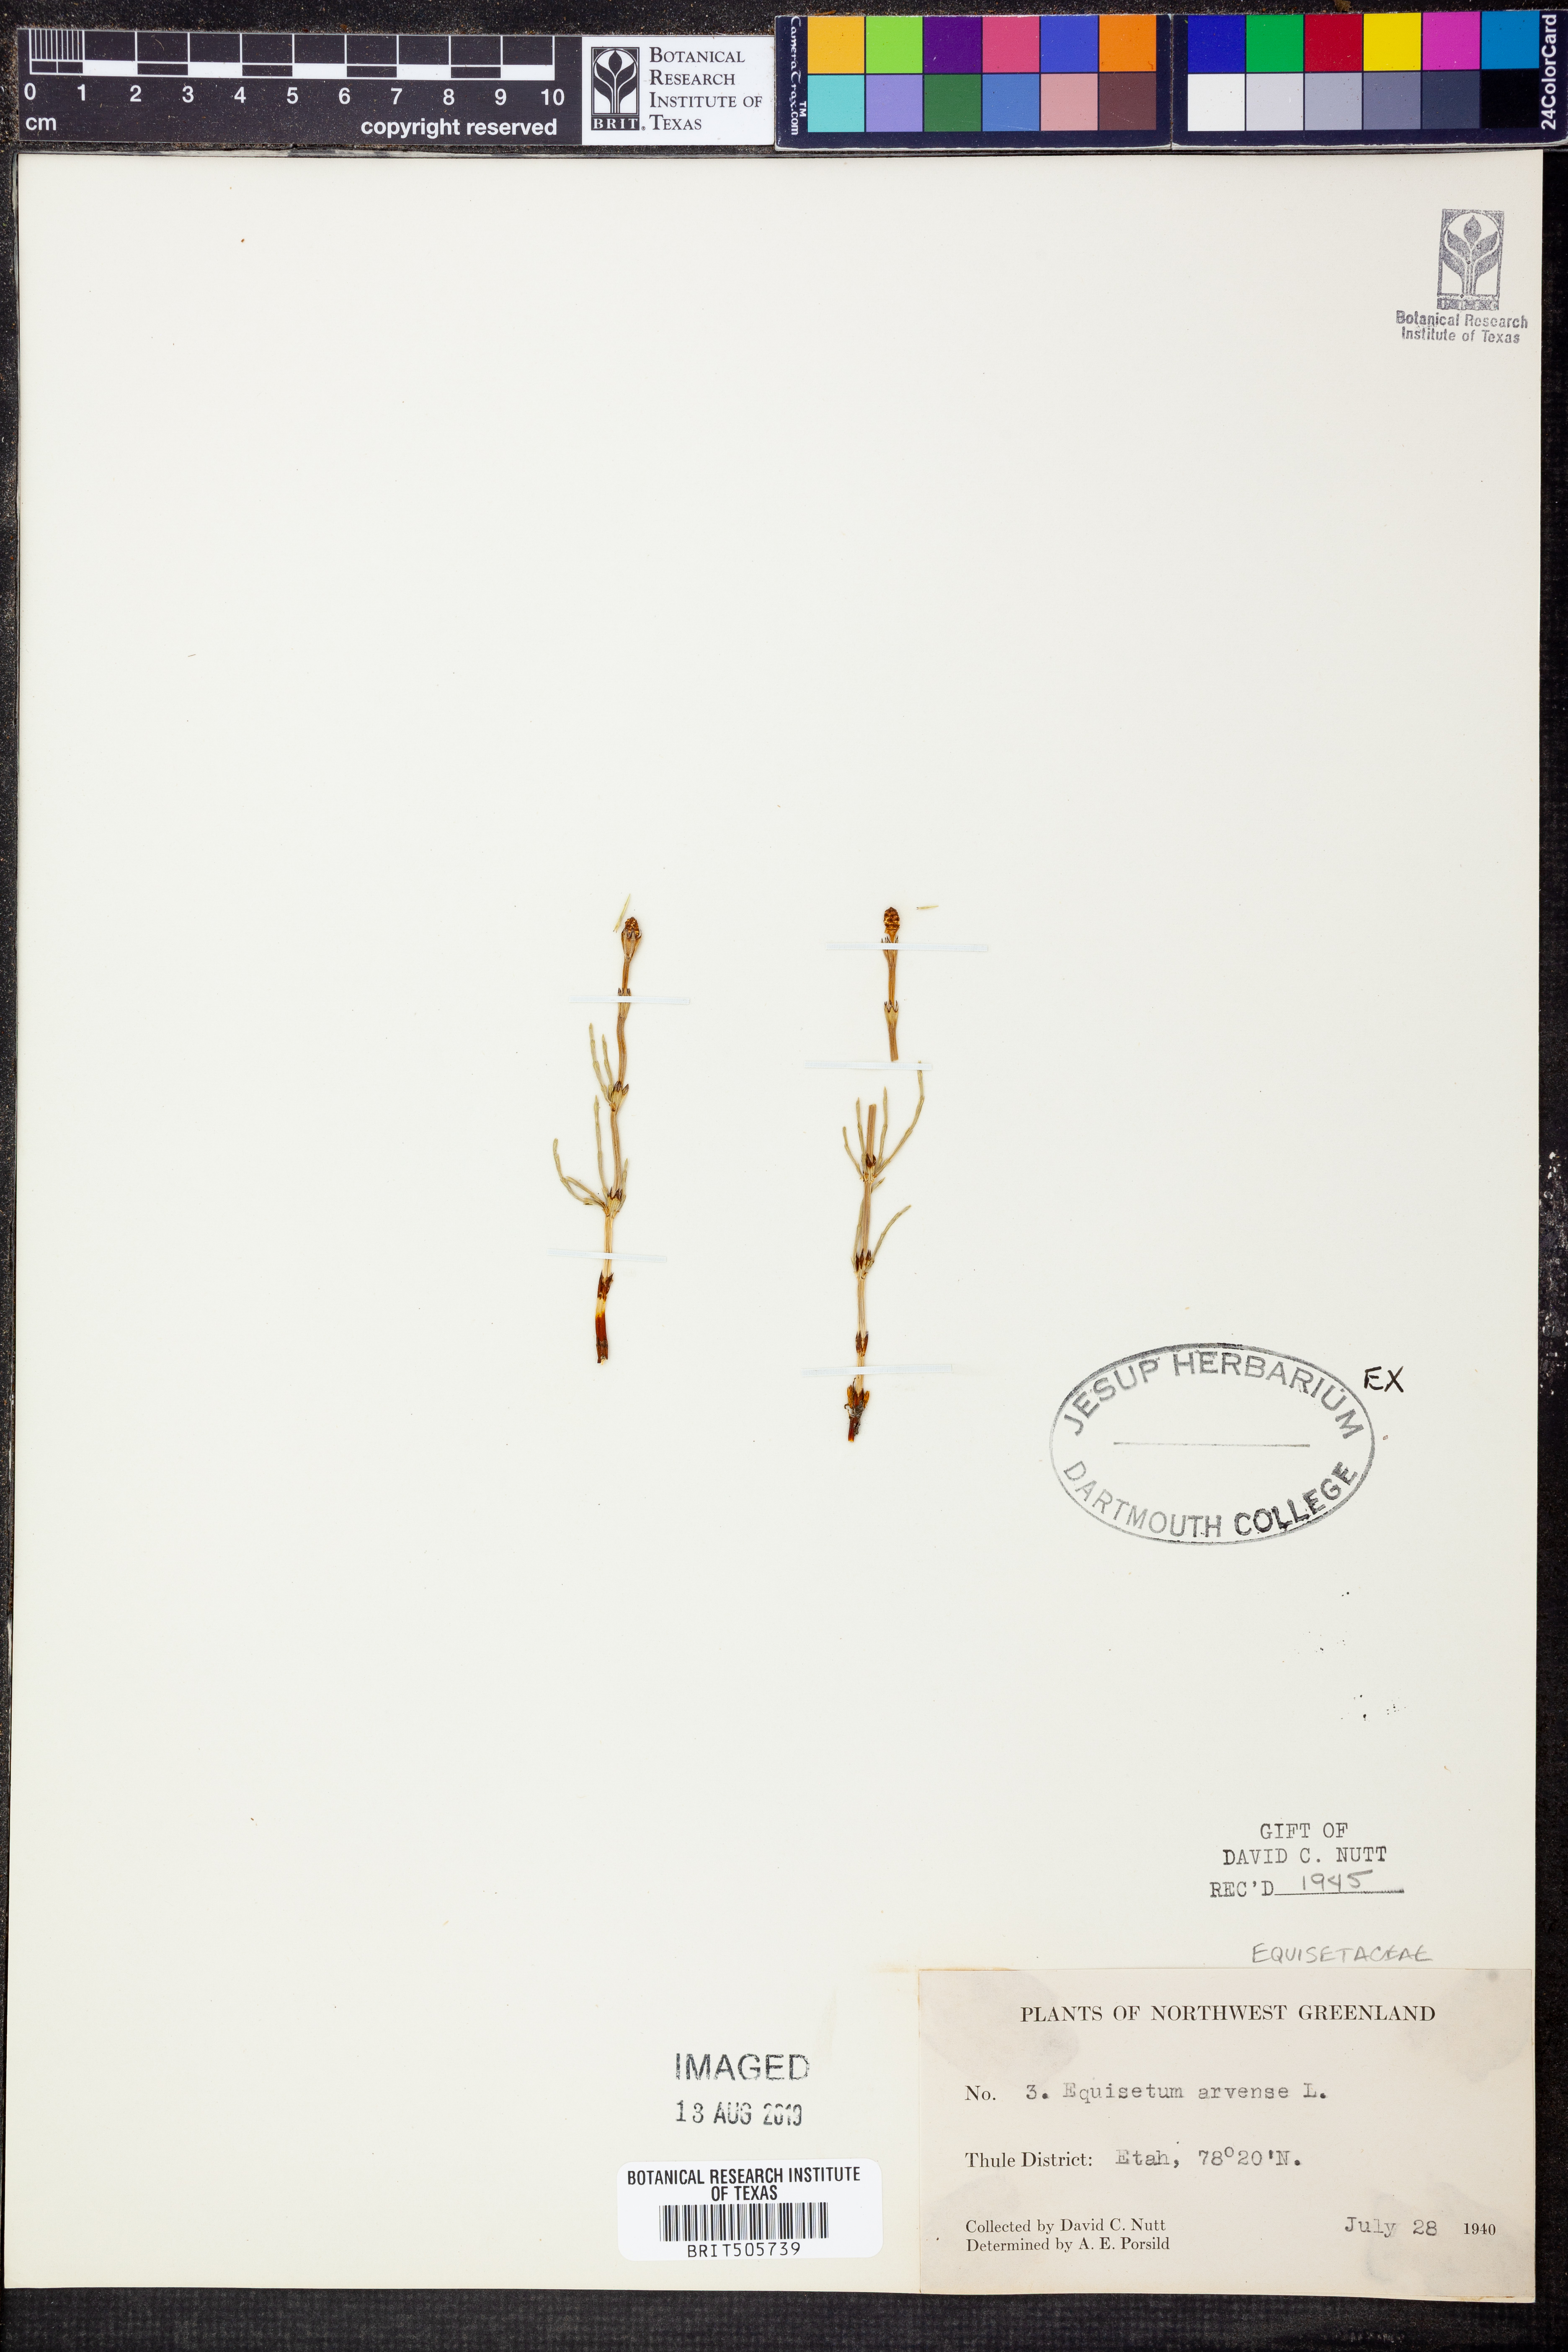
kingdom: Plantae
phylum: Tracheophyta
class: Polypodiopsida
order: Equisetales
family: Equisetaceae
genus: Equisetum
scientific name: Equisetum arvense
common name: Field horsetail
